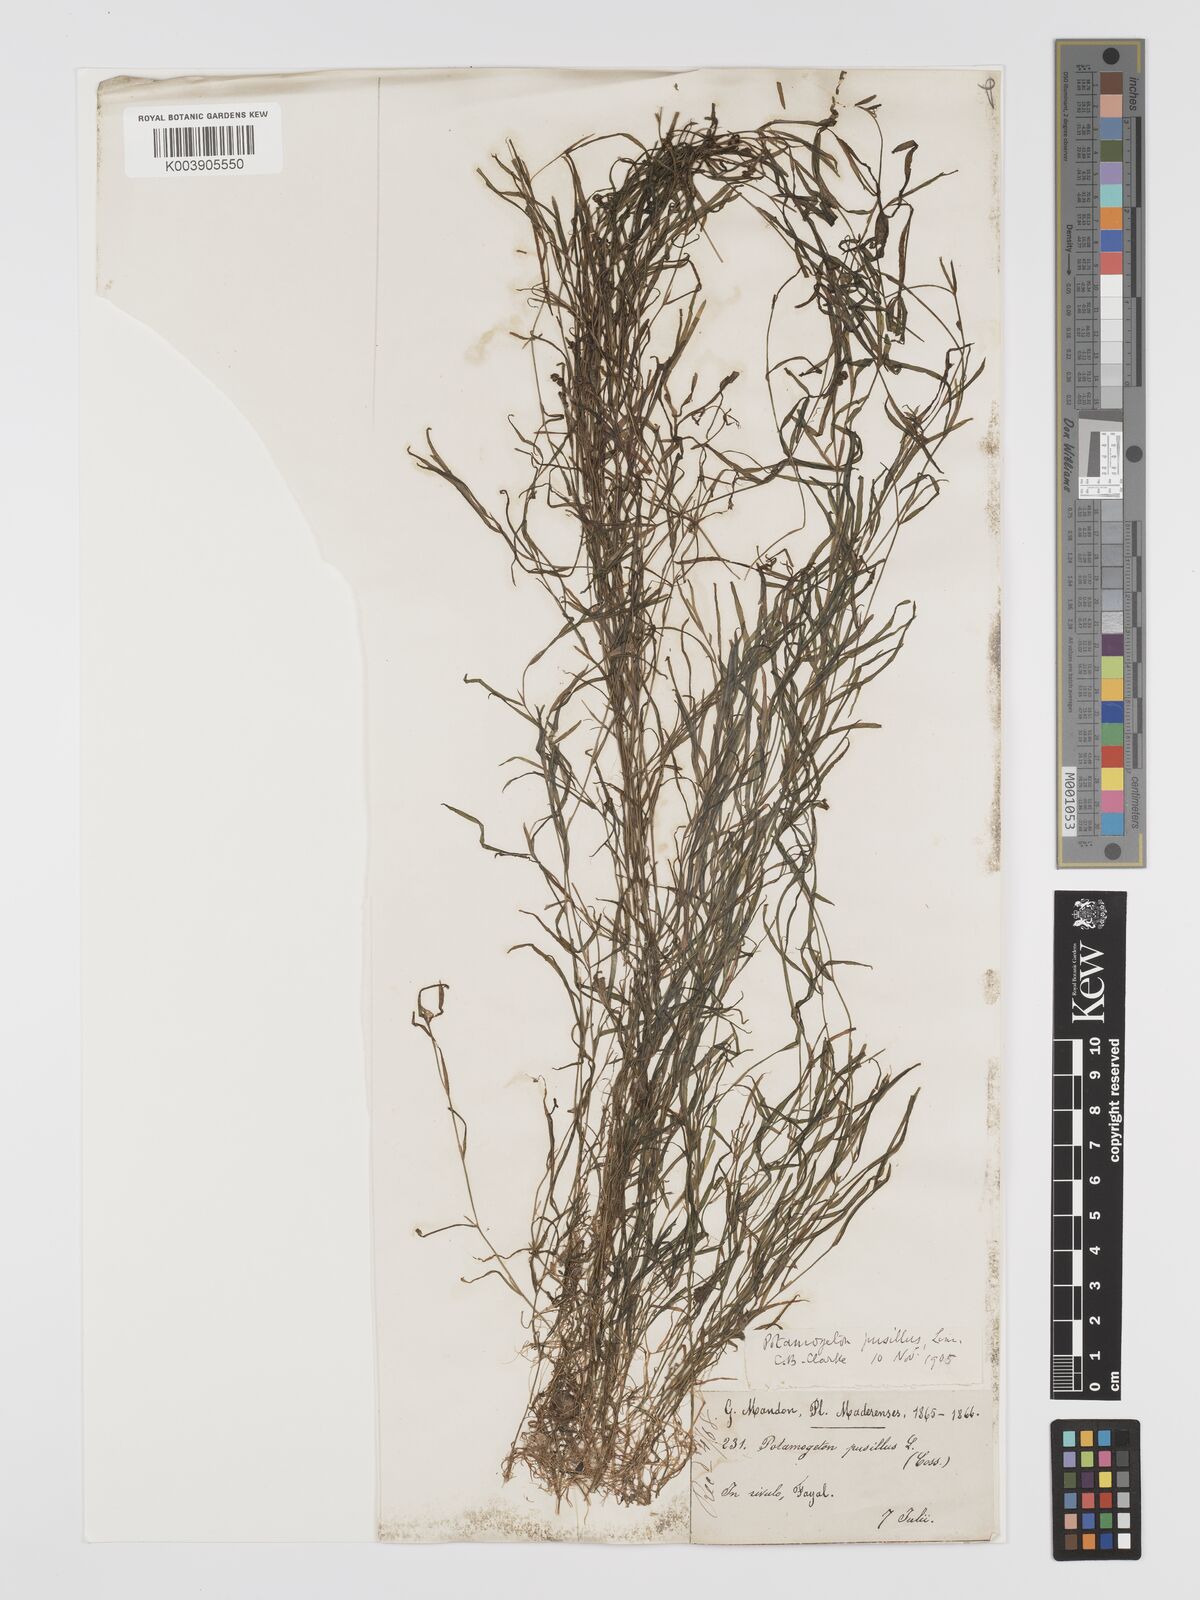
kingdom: Plantae
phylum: Tracheophyta
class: Liliopsida
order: Alismatales
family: Potamogetonaceae
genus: Potamogeton
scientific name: Potamogeton pusillus
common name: Lesser pondweed
